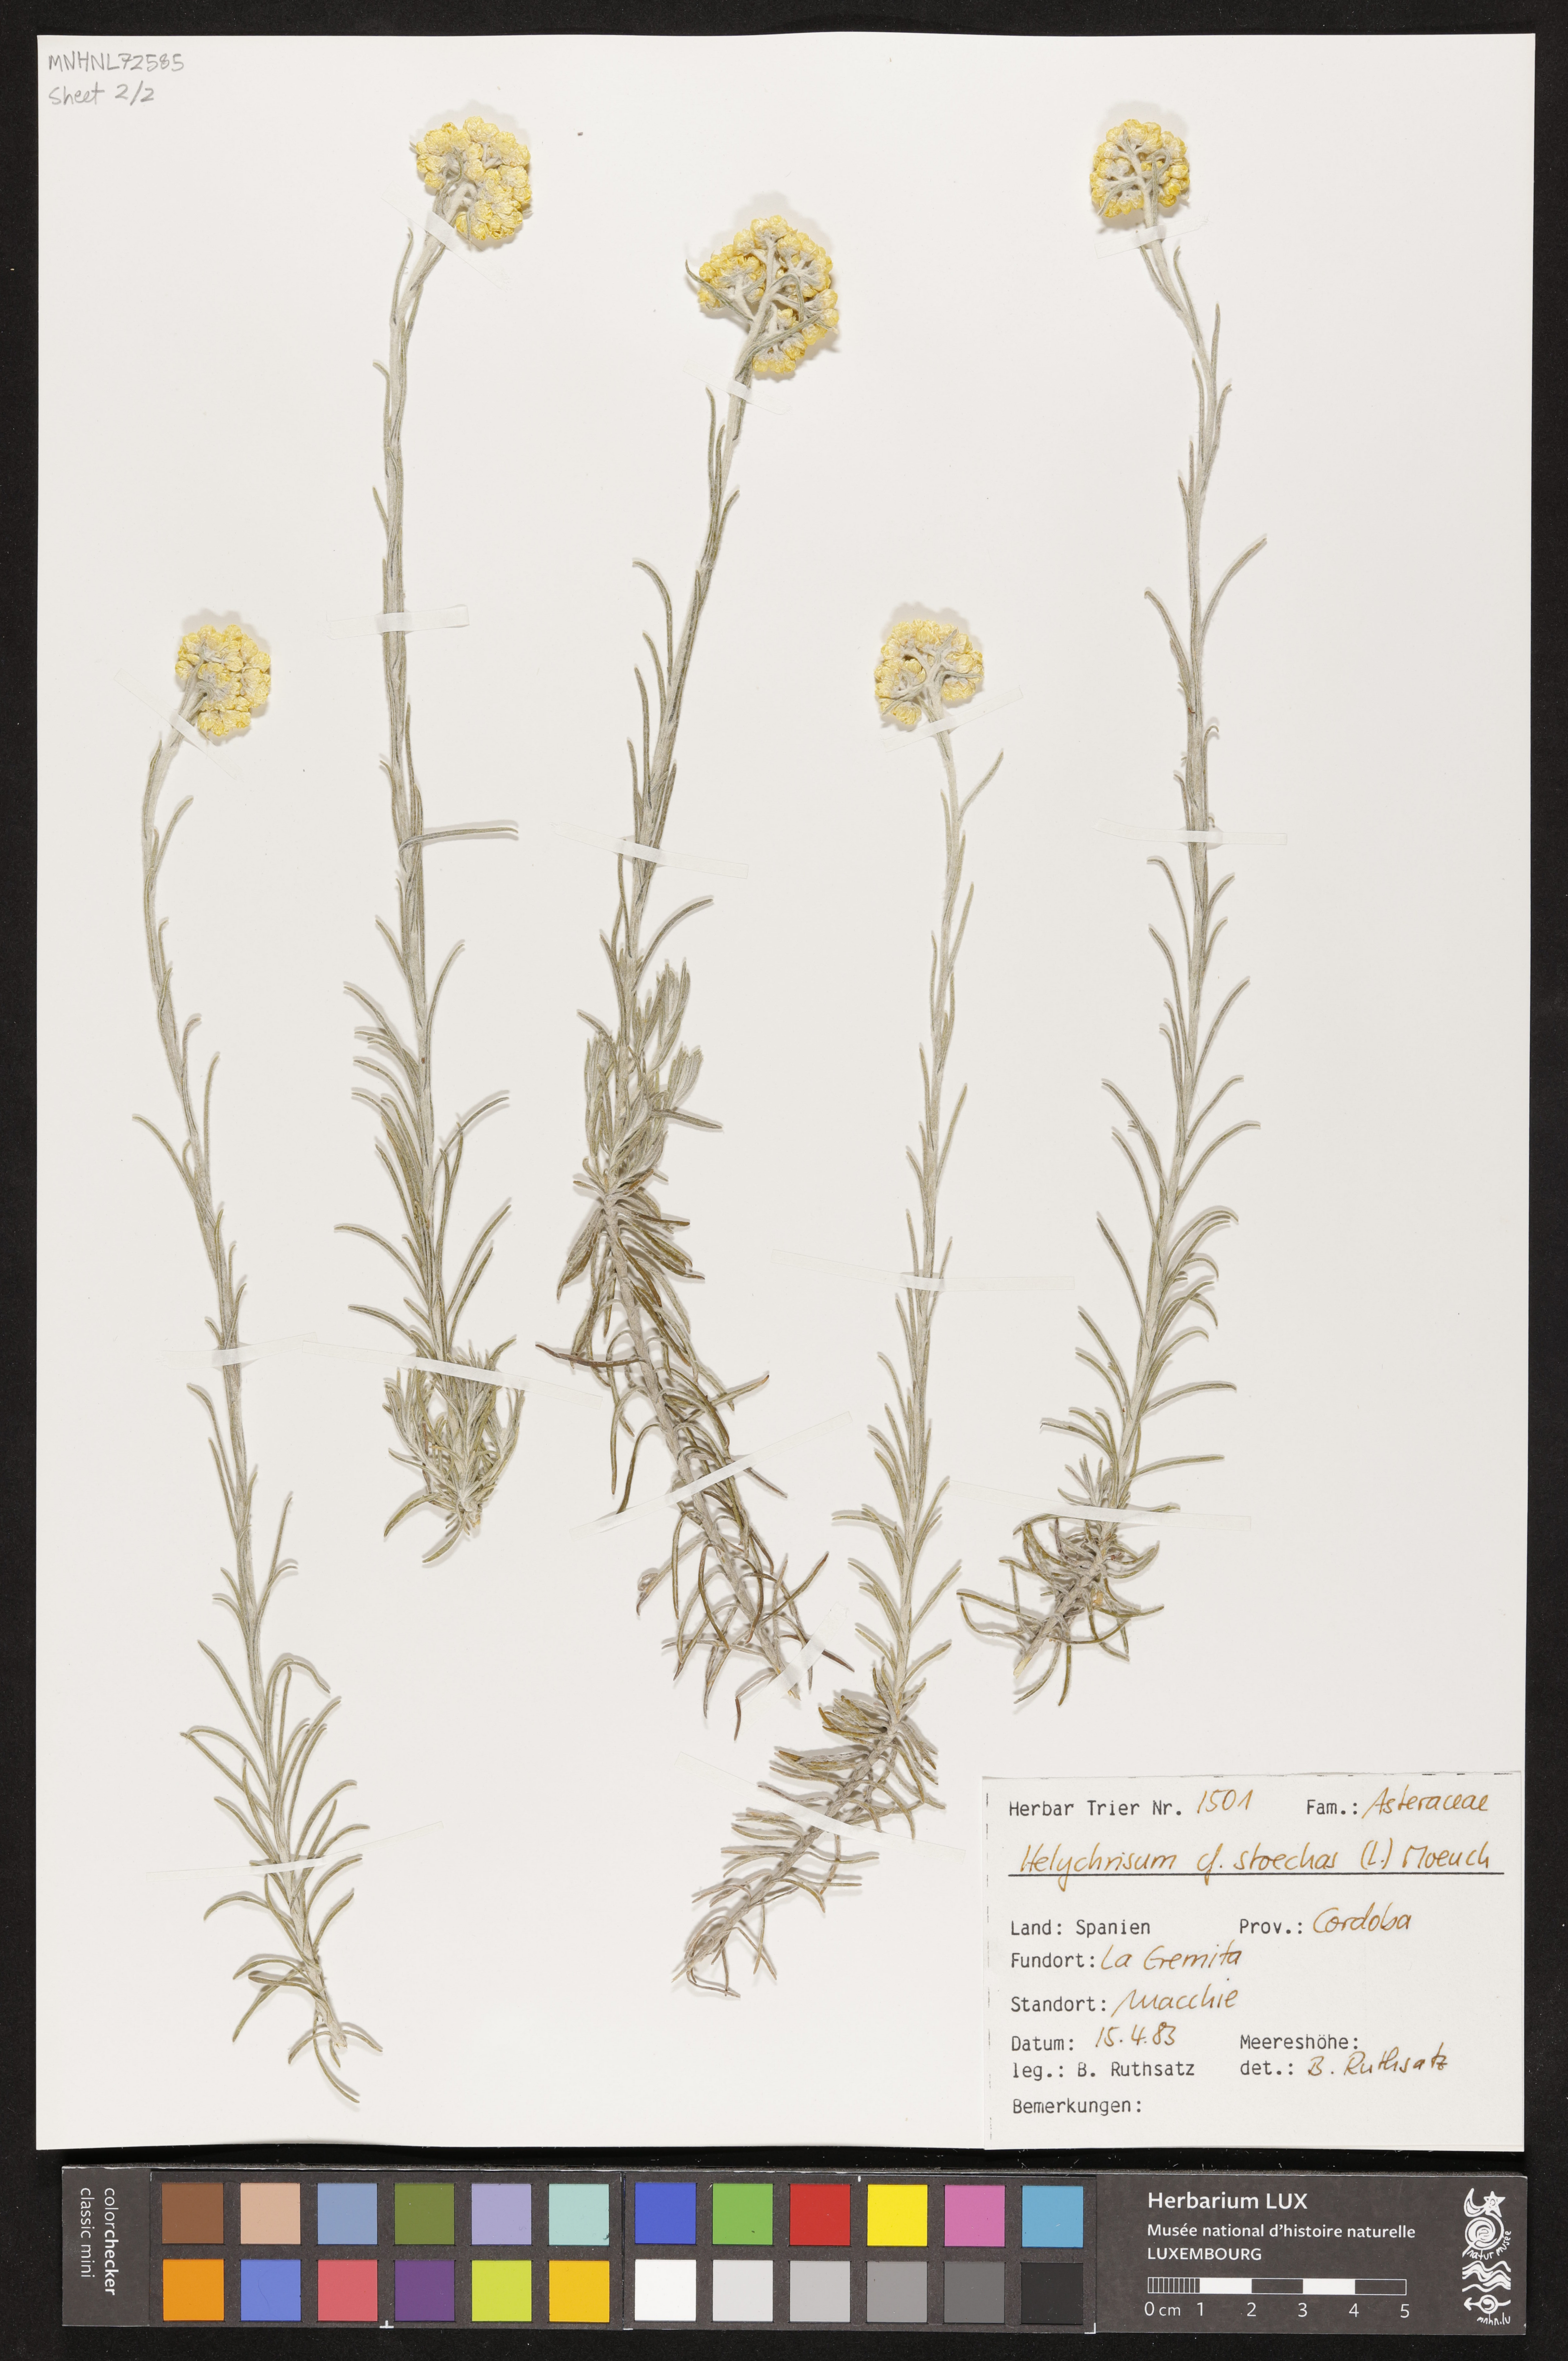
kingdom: Plantae
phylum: Tracheophyta
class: Magnoliopsida
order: Asterales
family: Asteraceae
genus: Helichrysum
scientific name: Helichrysum stoechas
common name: Goldilocks
